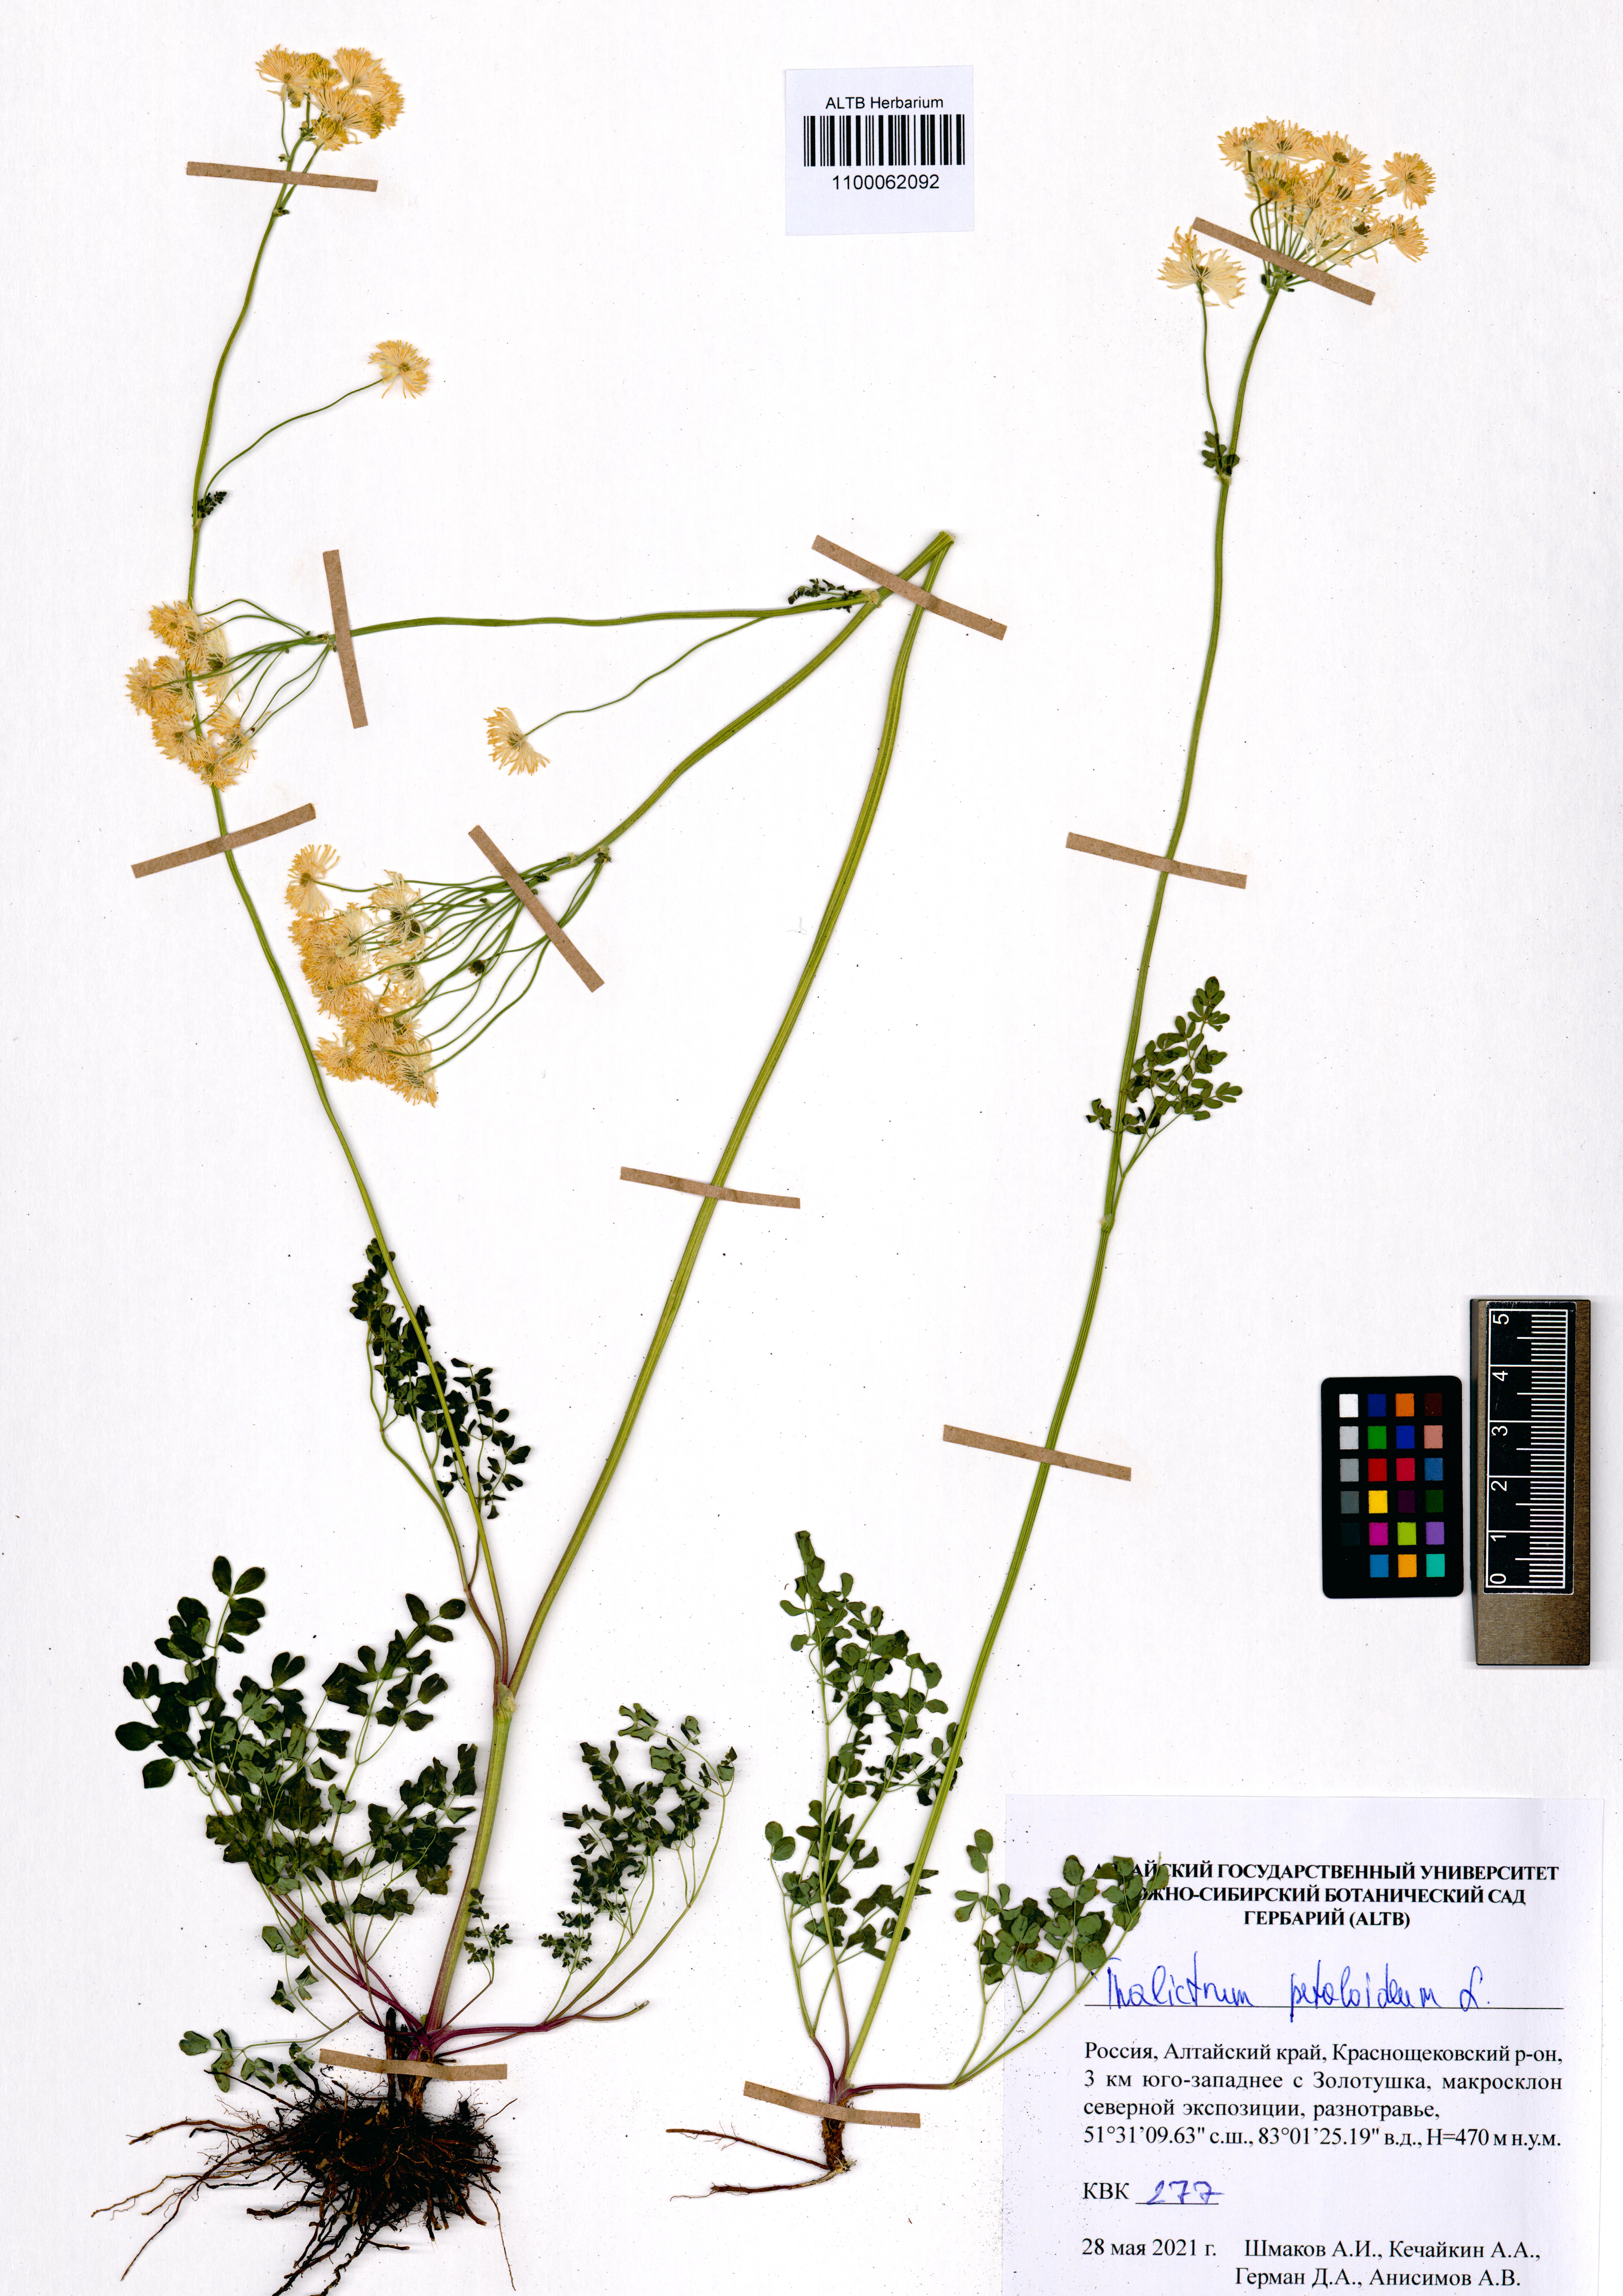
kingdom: Plantae
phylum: Tracheophyta
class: Magnoliopsida
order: Ranunculales
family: Ranunculaceae
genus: Thalictrum
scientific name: Thalictrum petaloideum
